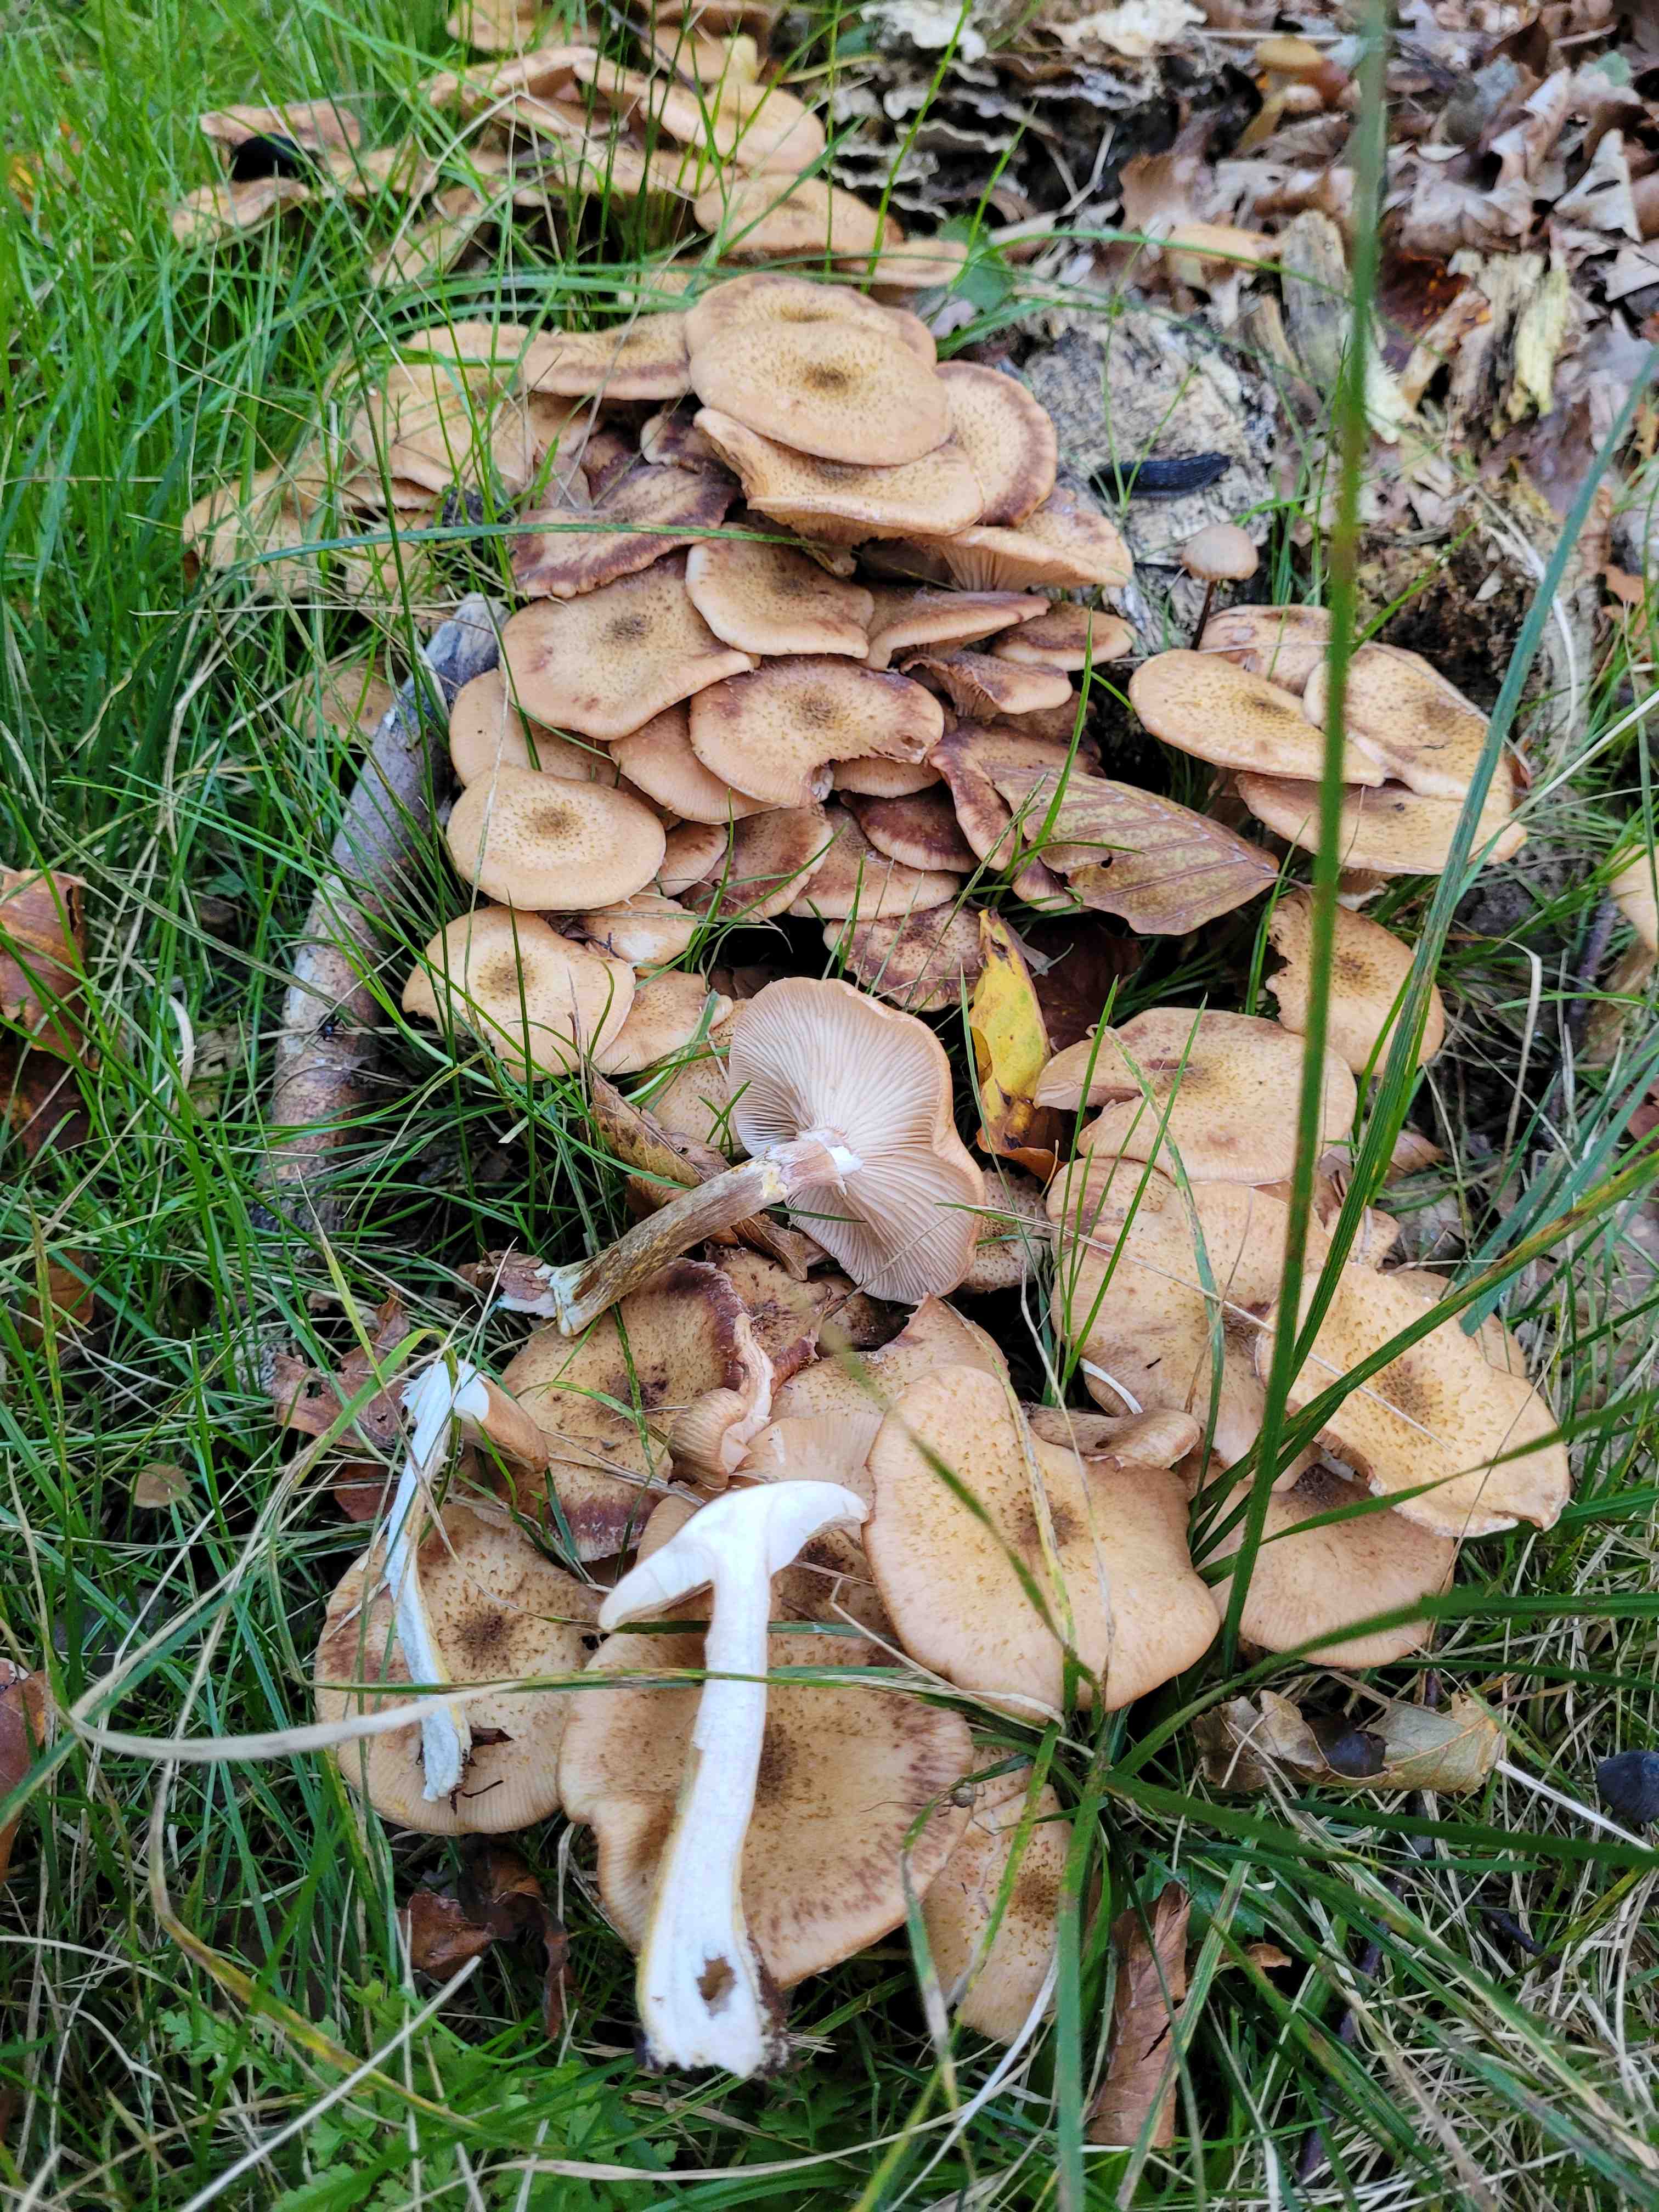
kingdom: Fungi
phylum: Basidiomycota
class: Agaricomycetes
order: Agaricales
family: Physalacriaceae
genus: Armillaria
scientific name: Armillaria lutea
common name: køllestokket honningsvamp
